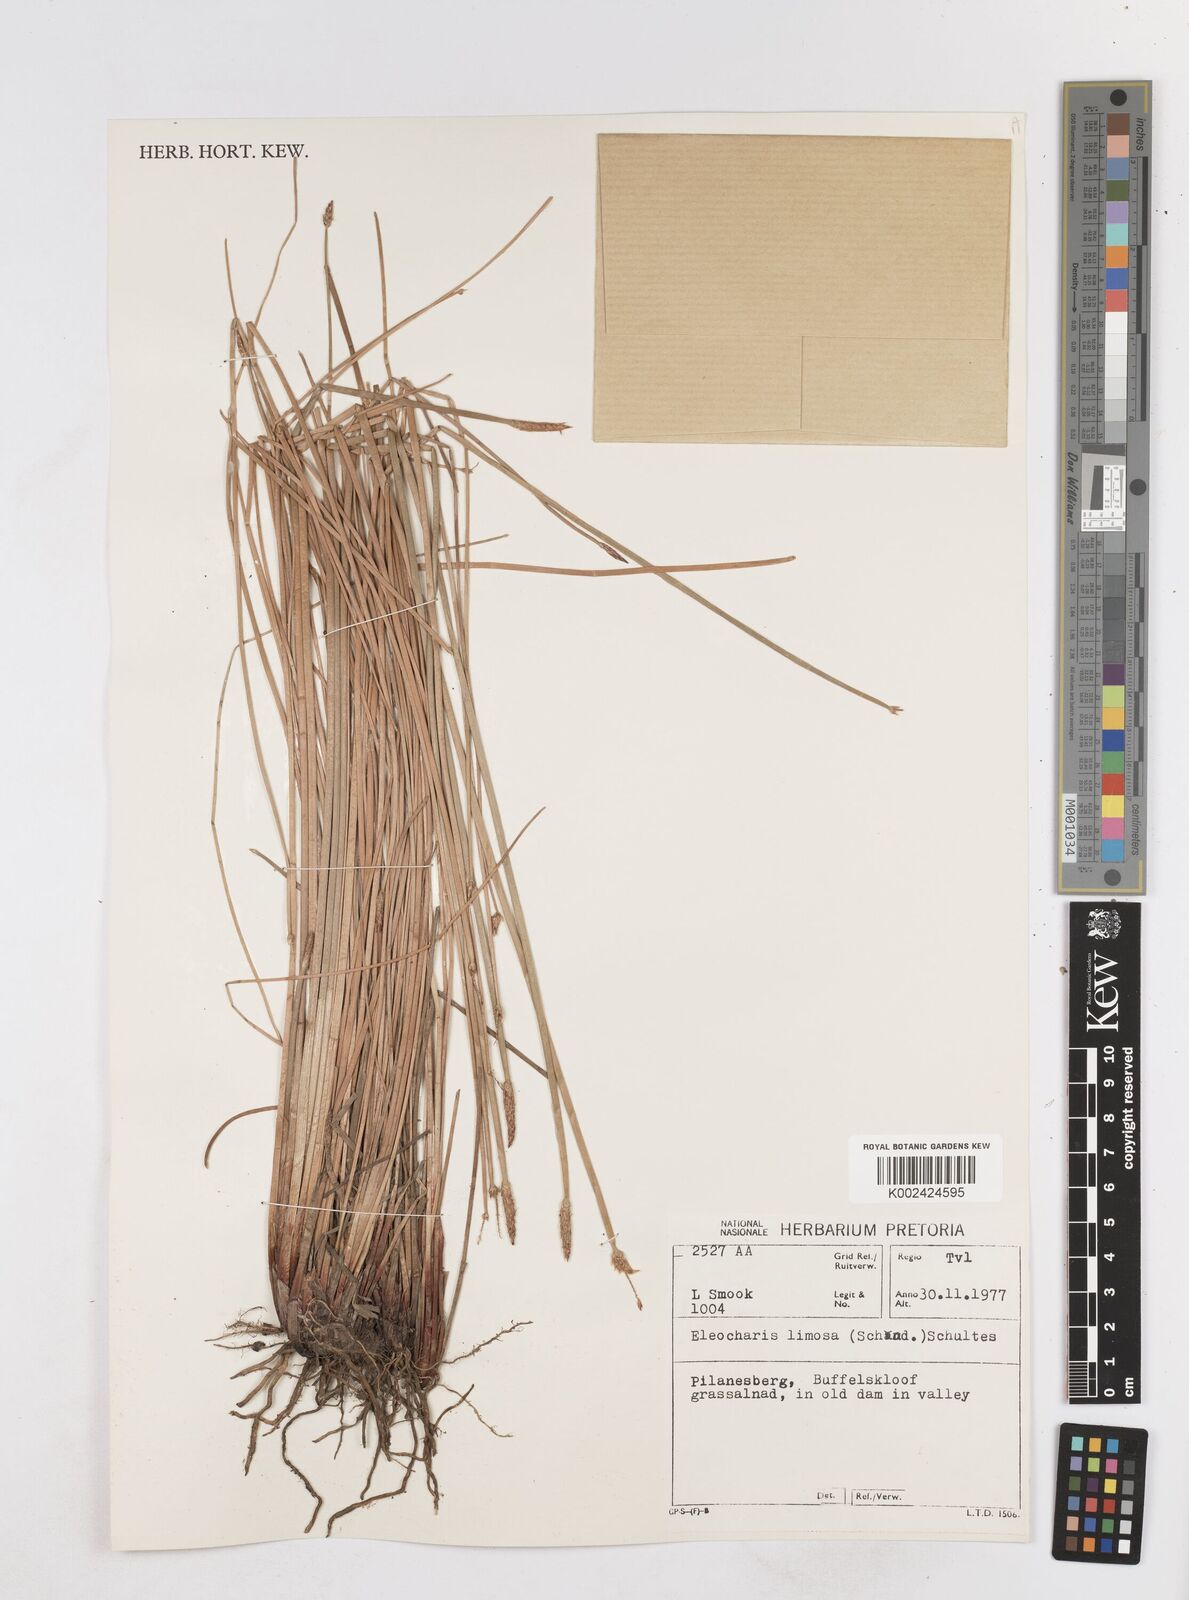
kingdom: Plantae
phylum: Tracheophyta
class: Liliopsida
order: Poales
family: Cyperaceae
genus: Eleocharis
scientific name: Eleocharis limosa
